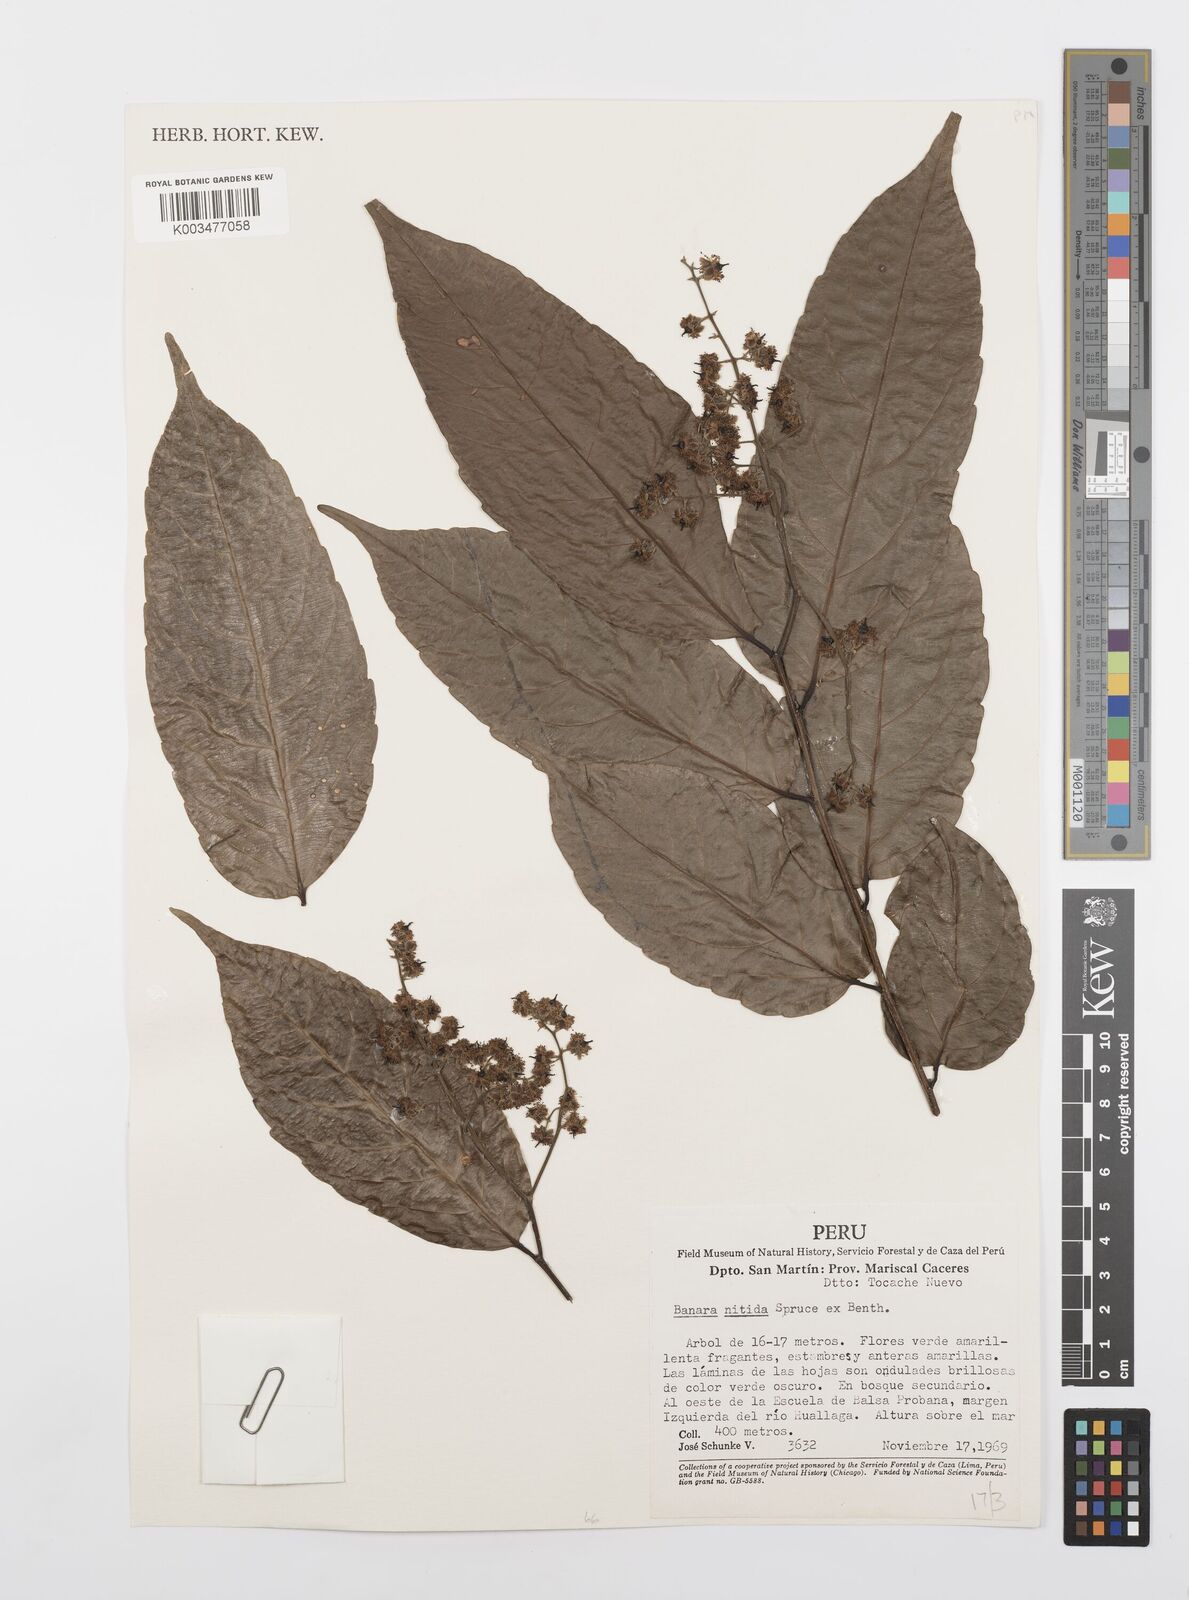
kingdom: Plantae
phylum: Tracheophyta
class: Magnoliopsida
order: Malpighiales
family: Salicaceae
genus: Banara
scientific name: Banara nitida
